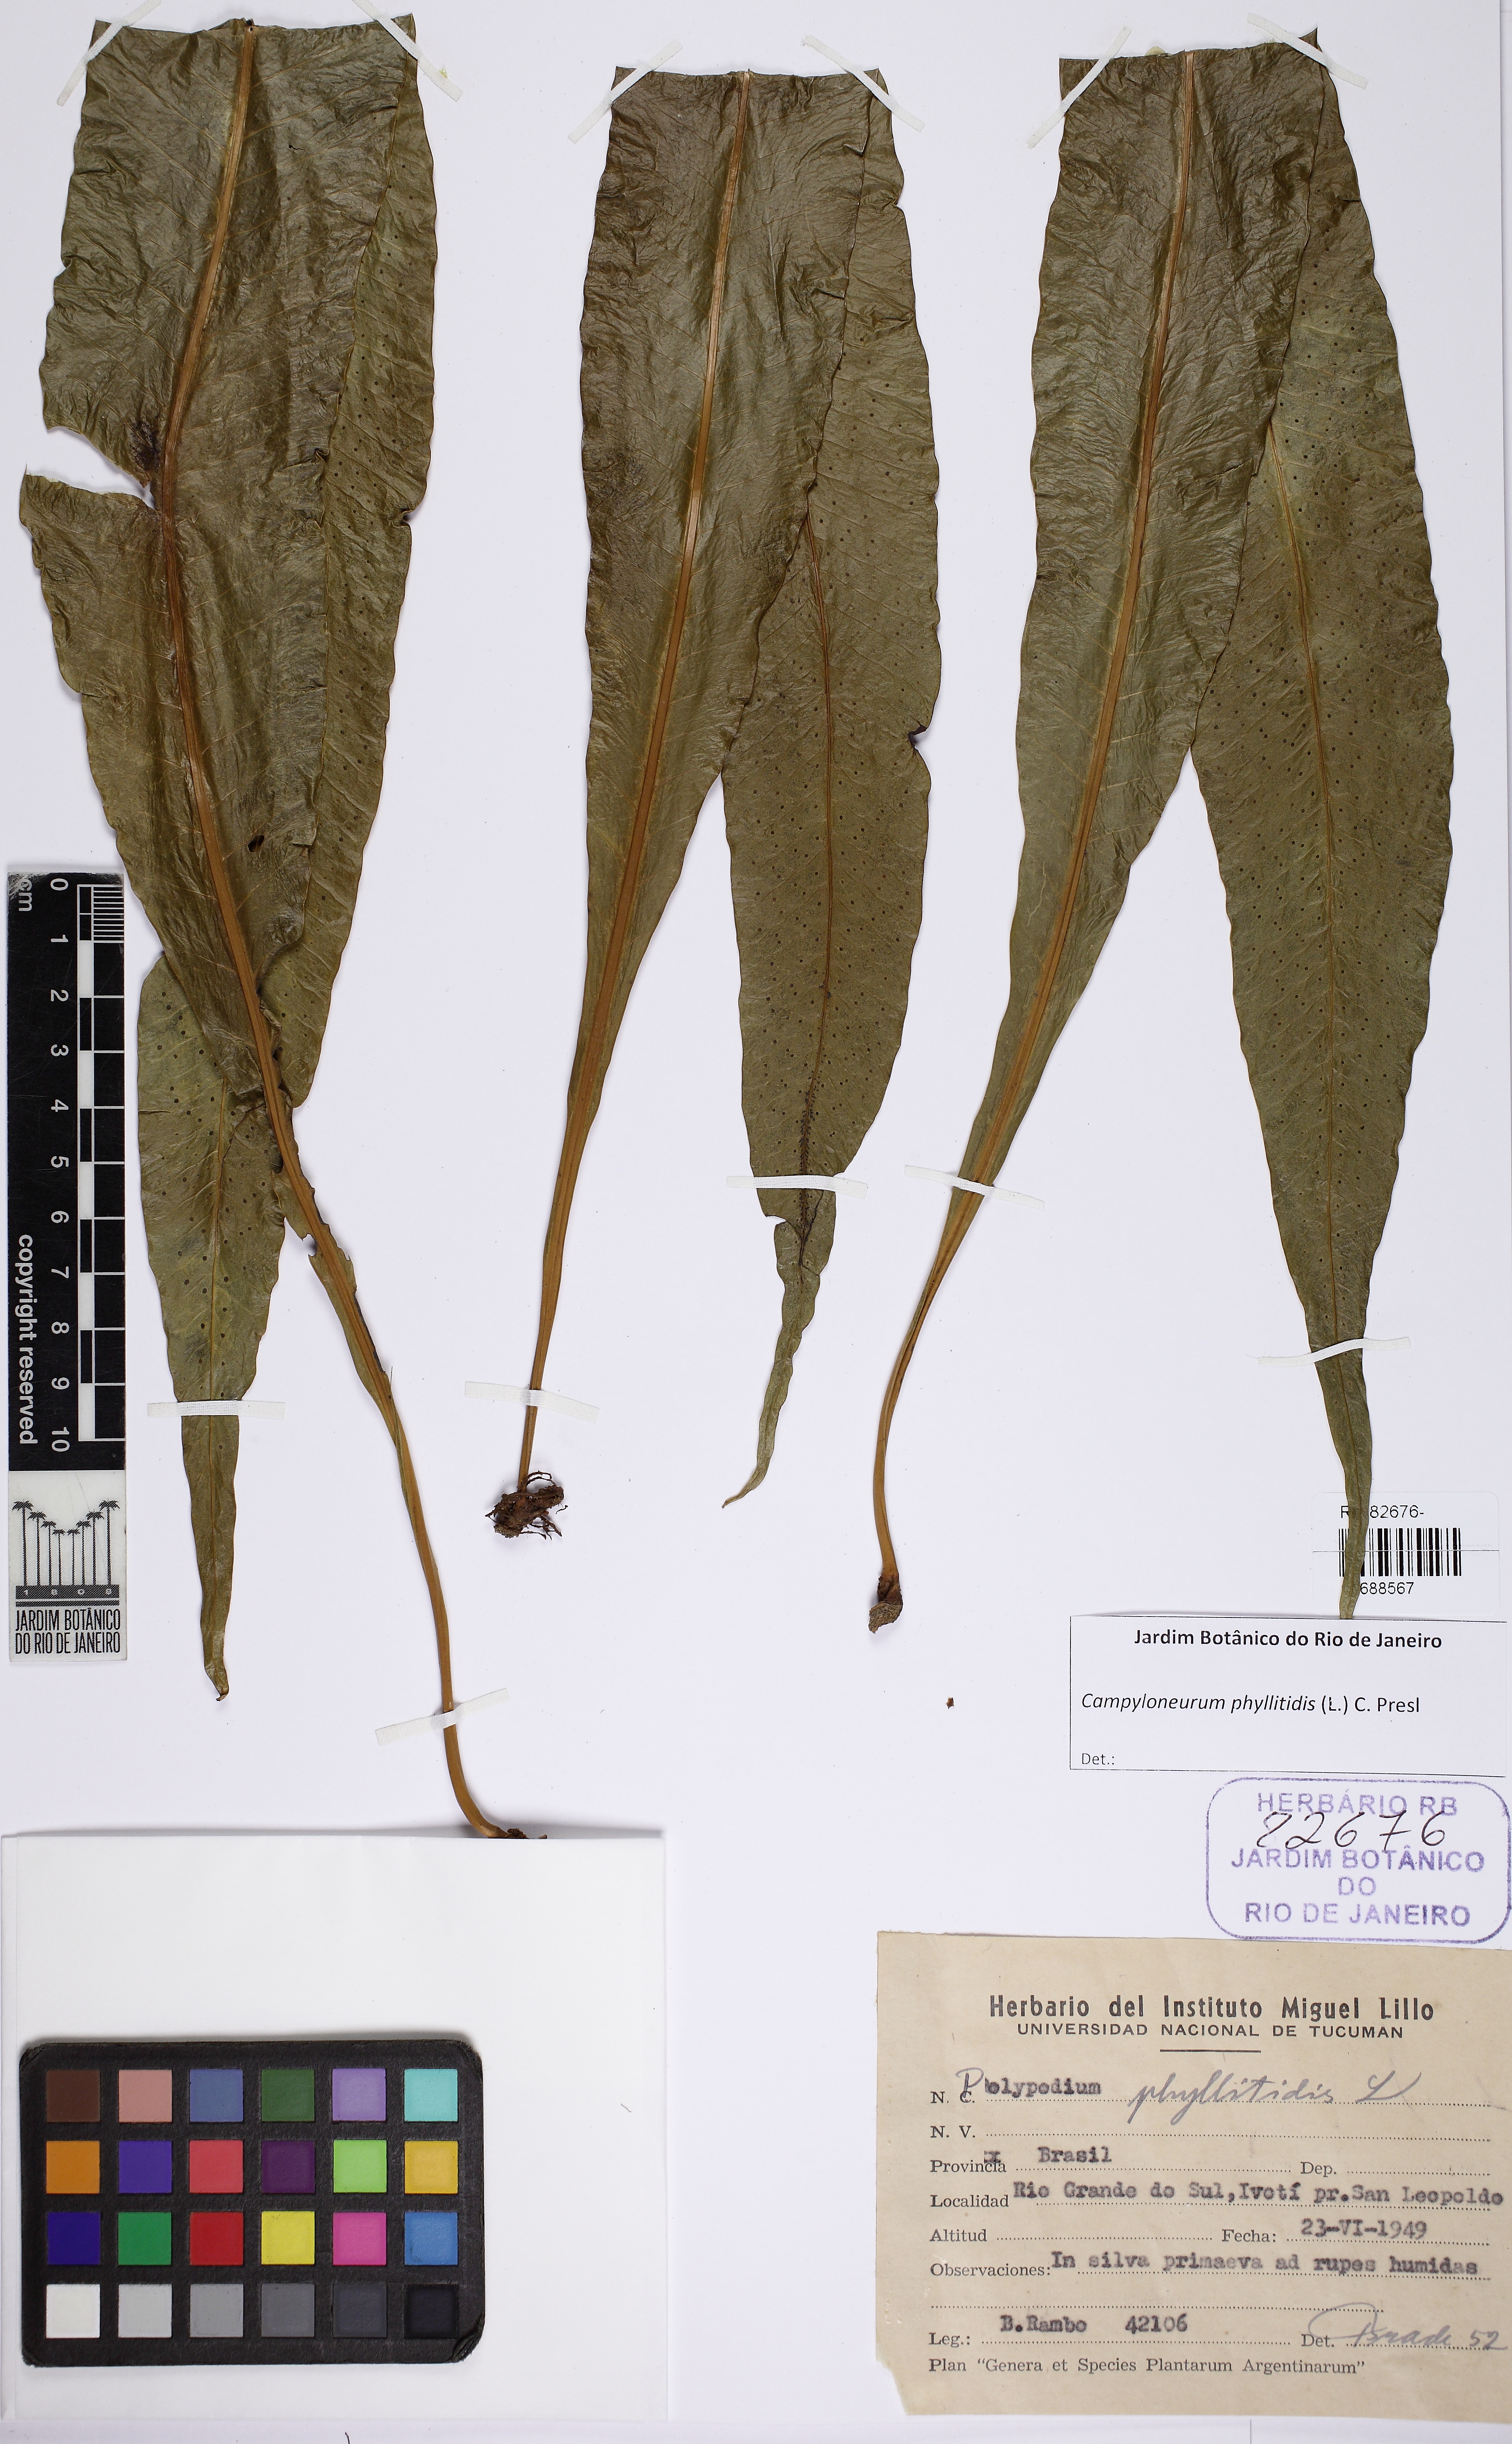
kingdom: Plantae
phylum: Tracheophyta
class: Polypodiopsida
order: Polypodiales
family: Polypodiaceae
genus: Campyloneurum
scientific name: Campyloneurum phyllitidis
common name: Cow-tongue fern
